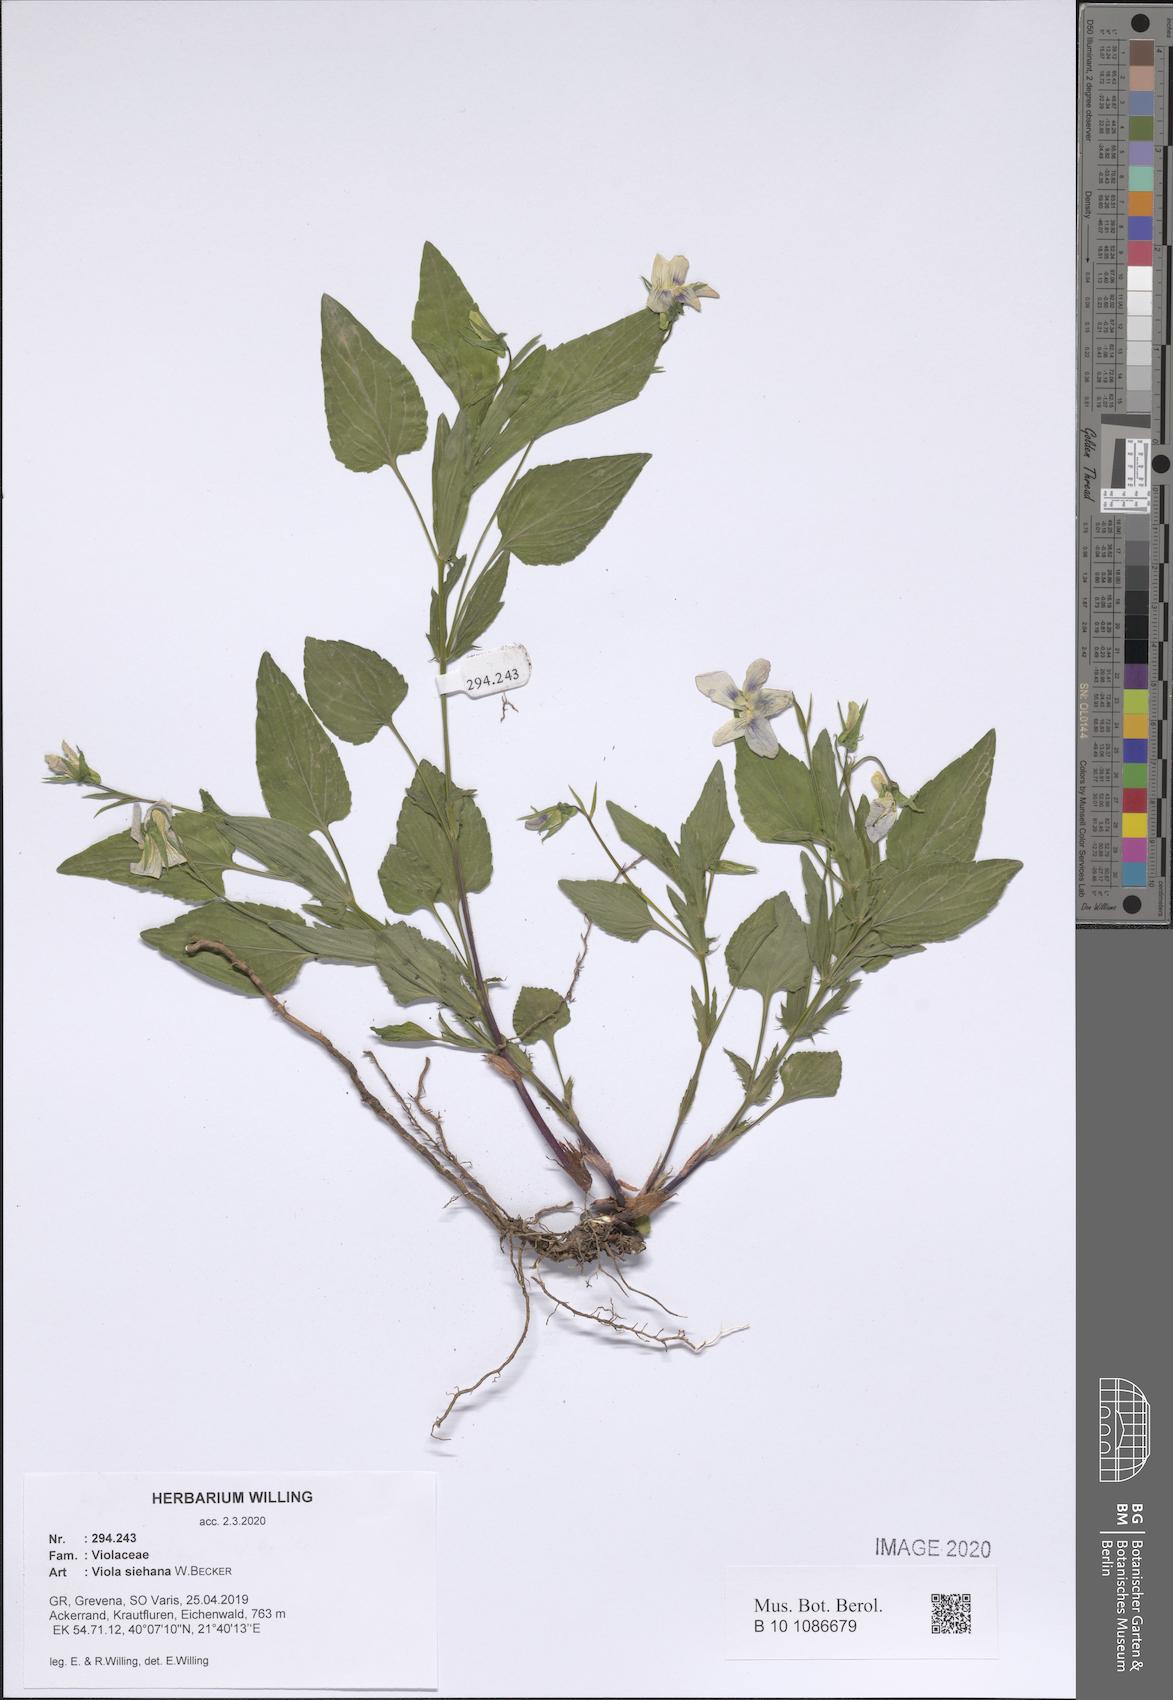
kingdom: Plantae
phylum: Tracheophyta
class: Magnoliopsida
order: Malpighiales
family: Violaceae
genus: Viola
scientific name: Viola sieheana
